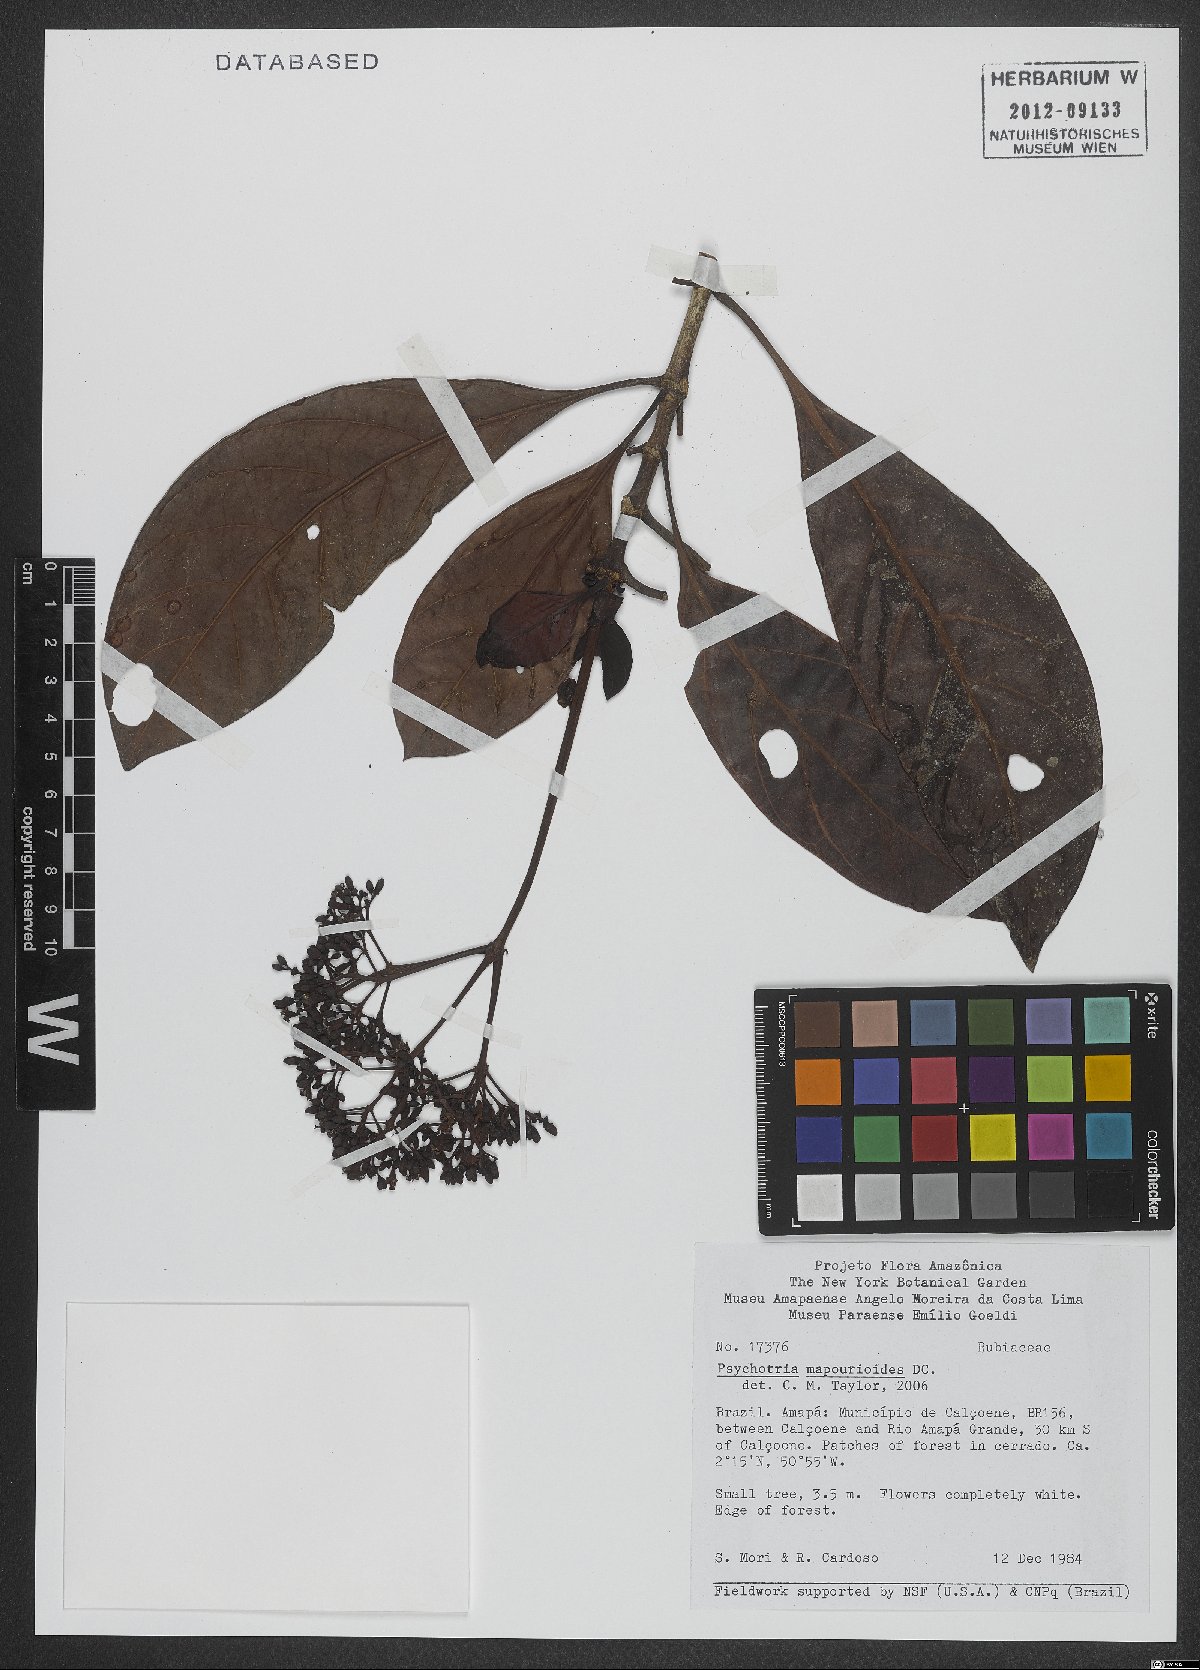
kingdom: Plantae
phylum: Tracheophyta
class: Magnoliopsida
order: Gentianales
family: Rubiaceae
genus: Psychotria
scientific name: Psychotria pedunculosa
